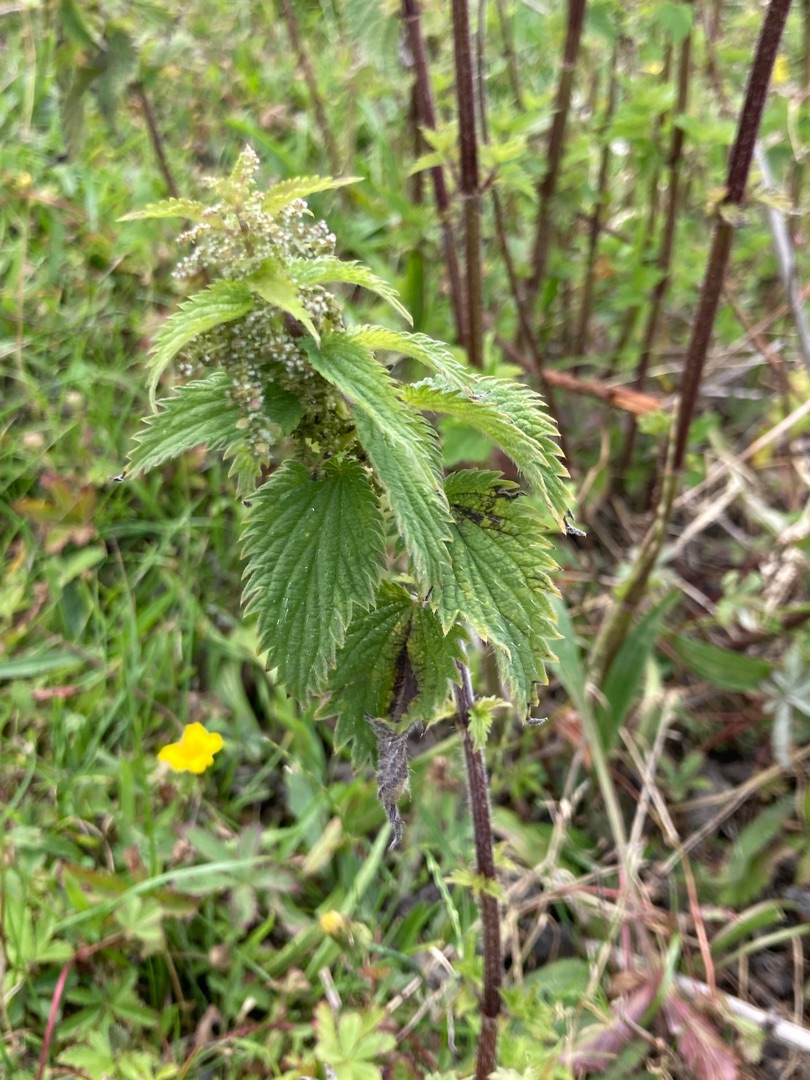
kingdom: Plantae
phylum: Tracheophyta
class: Magnoliopsida
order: Rosales
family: Urticaceae
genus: Urtica
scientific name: Urtica dioica
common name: Stor nælde
